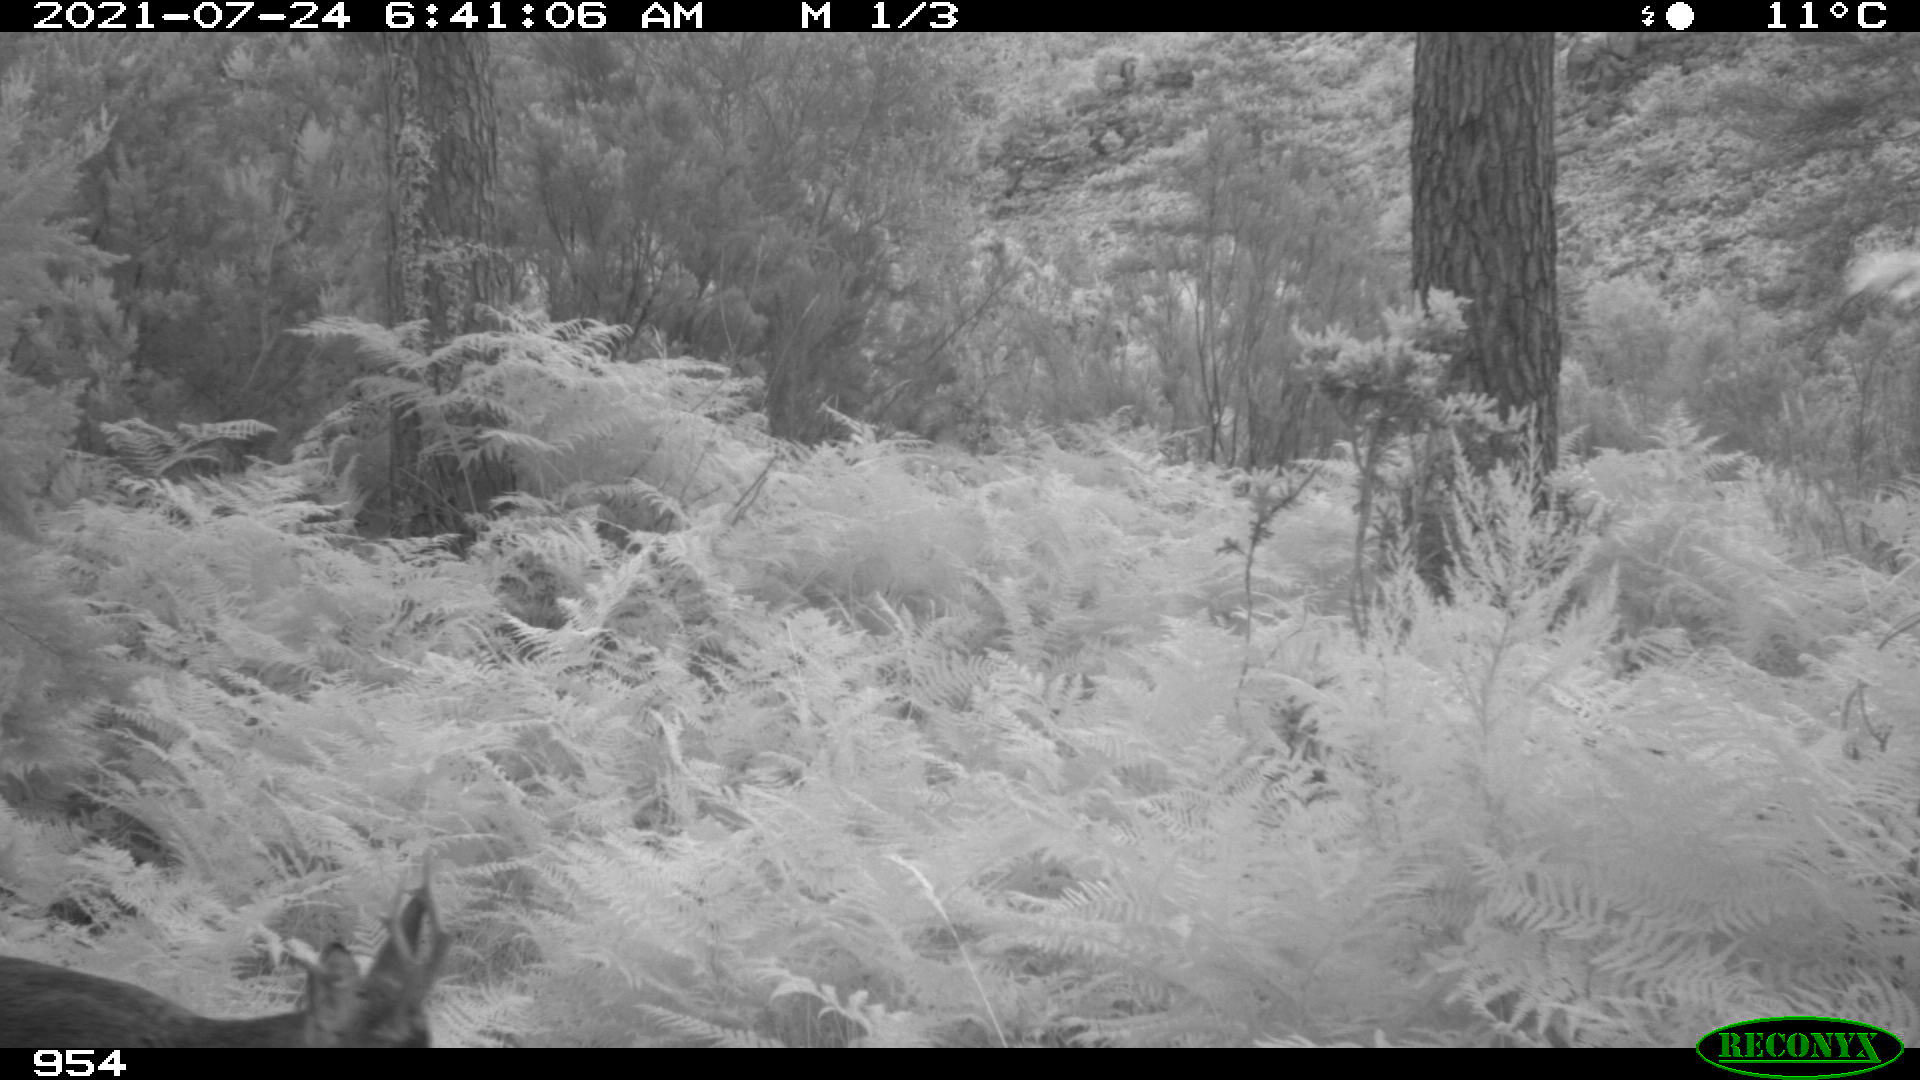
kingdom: Animalia
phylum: Chordata
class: Mammalia
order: Artiodactyla
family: Cervidae
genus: Capreolus
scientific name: Capreolus capreolus
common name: Western roe deer
